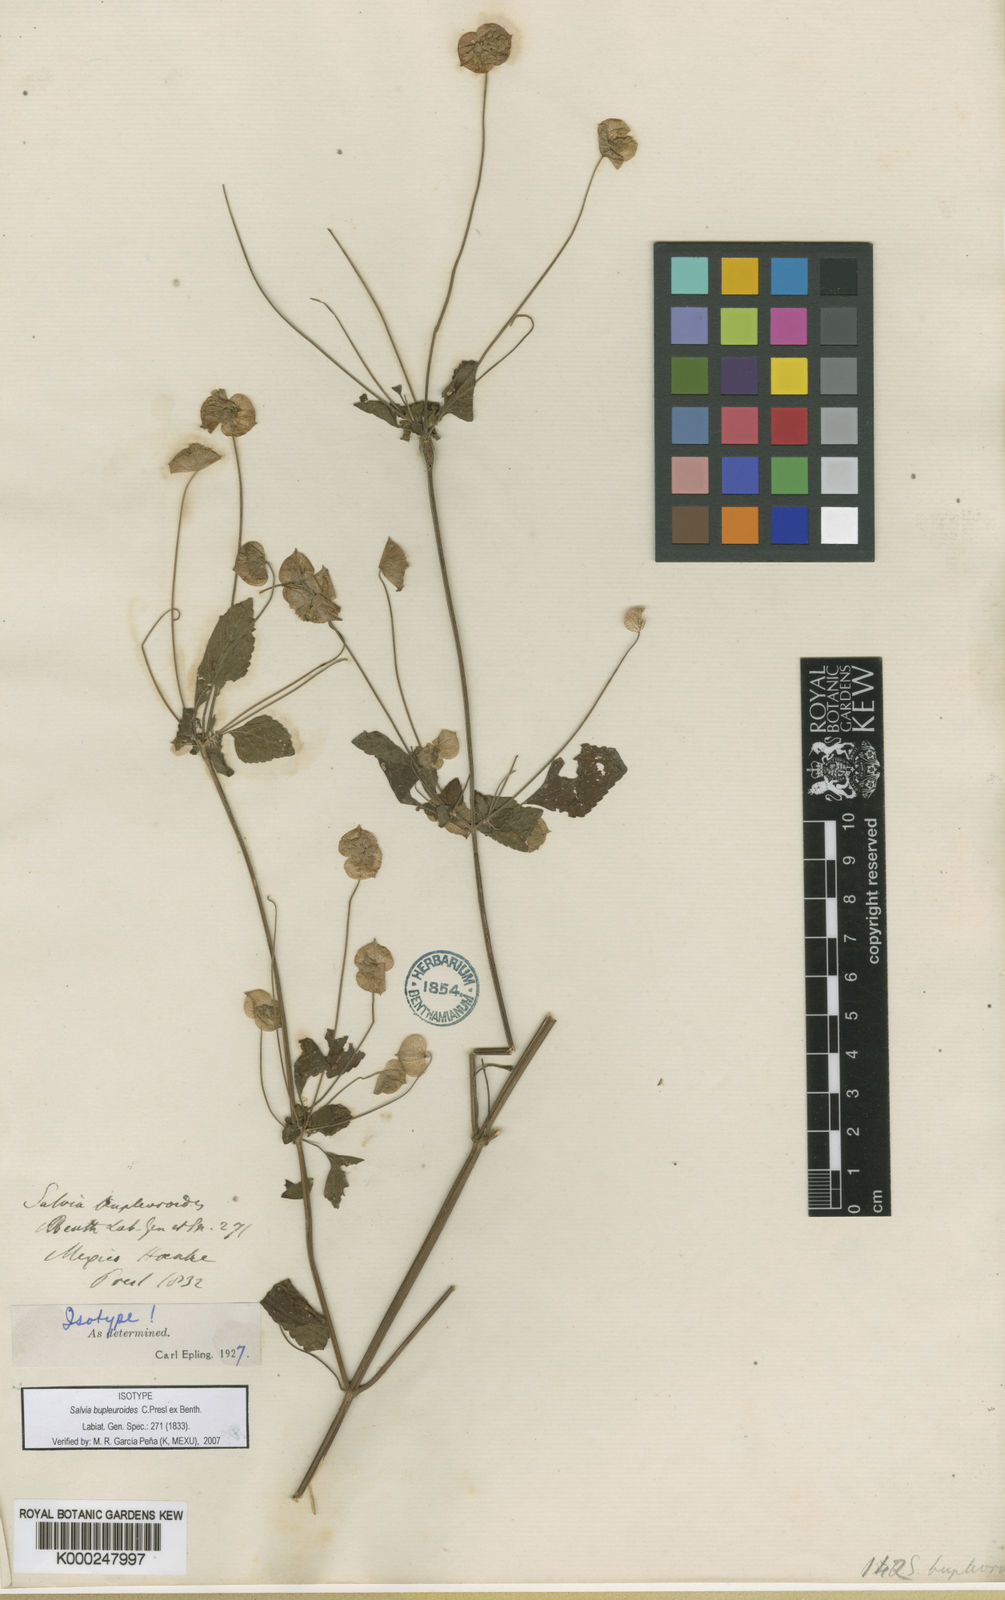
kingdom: Plantae
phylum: Tracheophyta
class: Magnoliopsida
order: Lamiales
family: Lamiaceae
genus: Salvia
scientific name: Salvia bupleuroides
